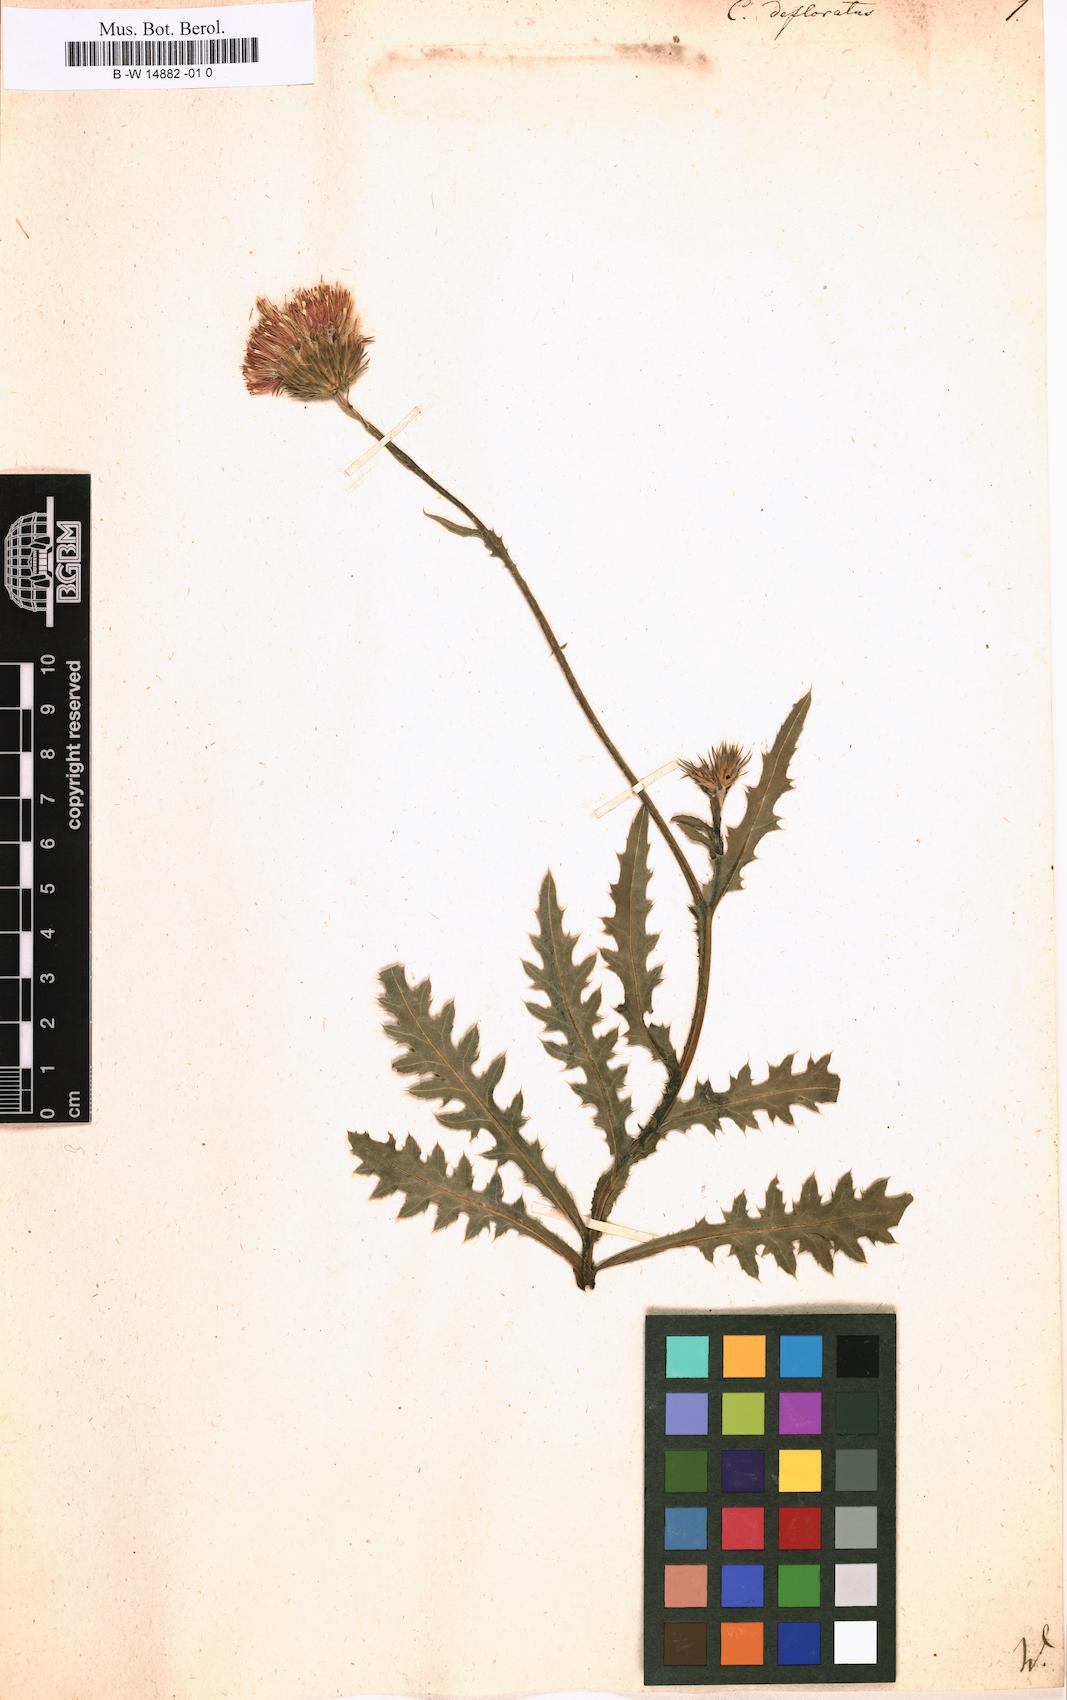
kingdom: Plantae
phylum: Tracheophyta
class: Magnoliopsida
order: Asterales
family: Asteraceae
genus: Carduus
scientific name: Carduus defloratus
